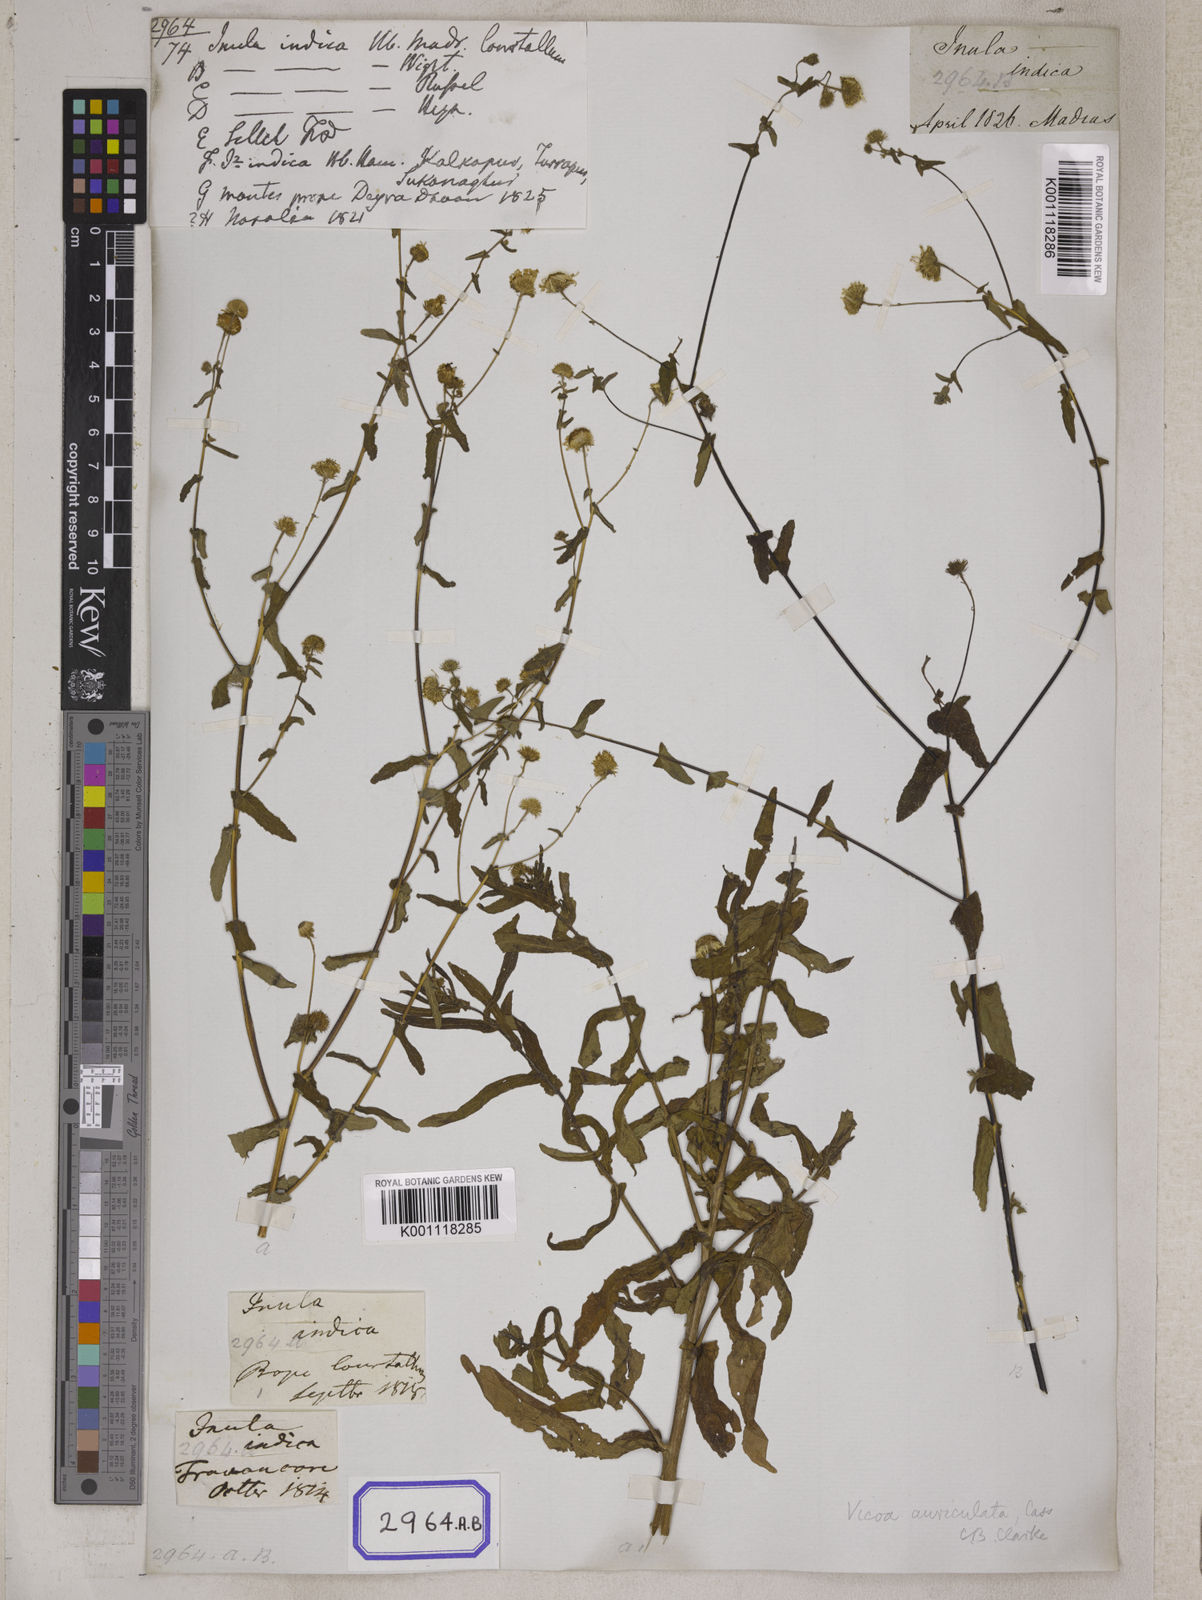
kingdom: Plantae
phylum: Tracheophyta
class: Magnoliopsida
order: Asterales
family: Asteraceae
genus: Vicoa
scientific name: Vicoa indica
